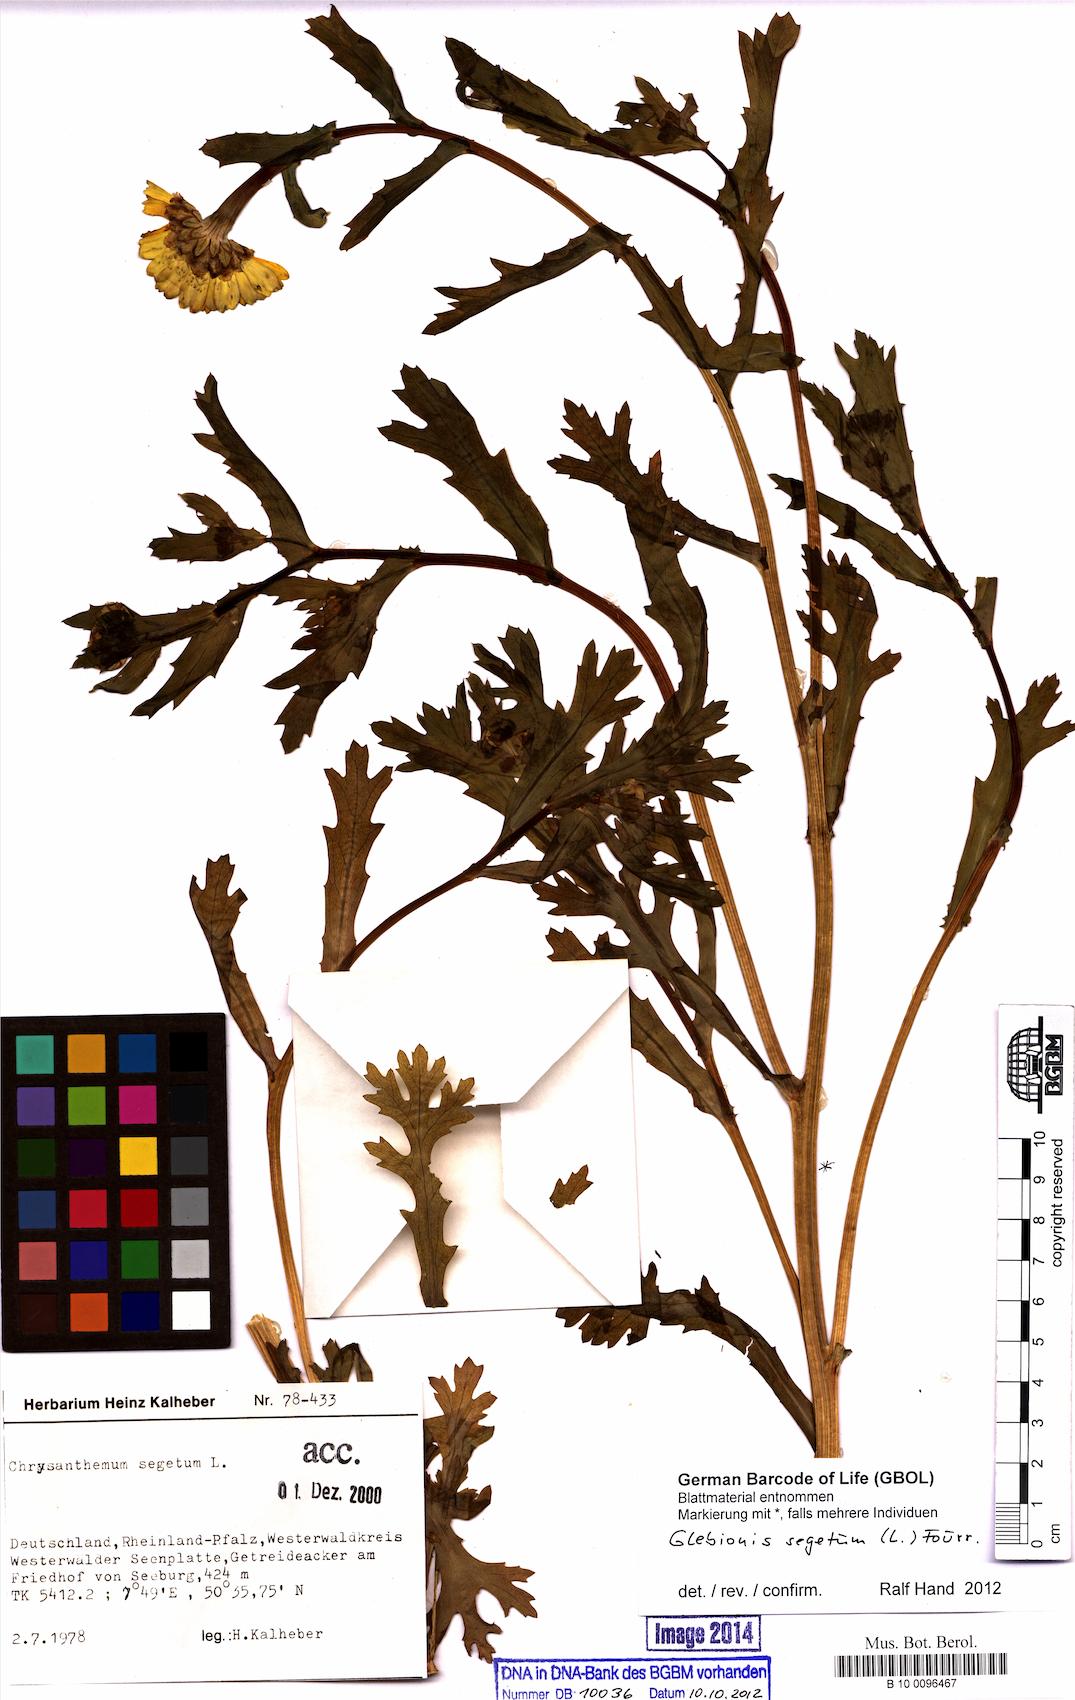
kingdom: Plantae
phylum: Tracheophyta
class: Magnoliopsida
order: Asterales
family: Asteraceae
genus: Glebionis
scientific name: Glebionis segetum
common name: Corndaisy
